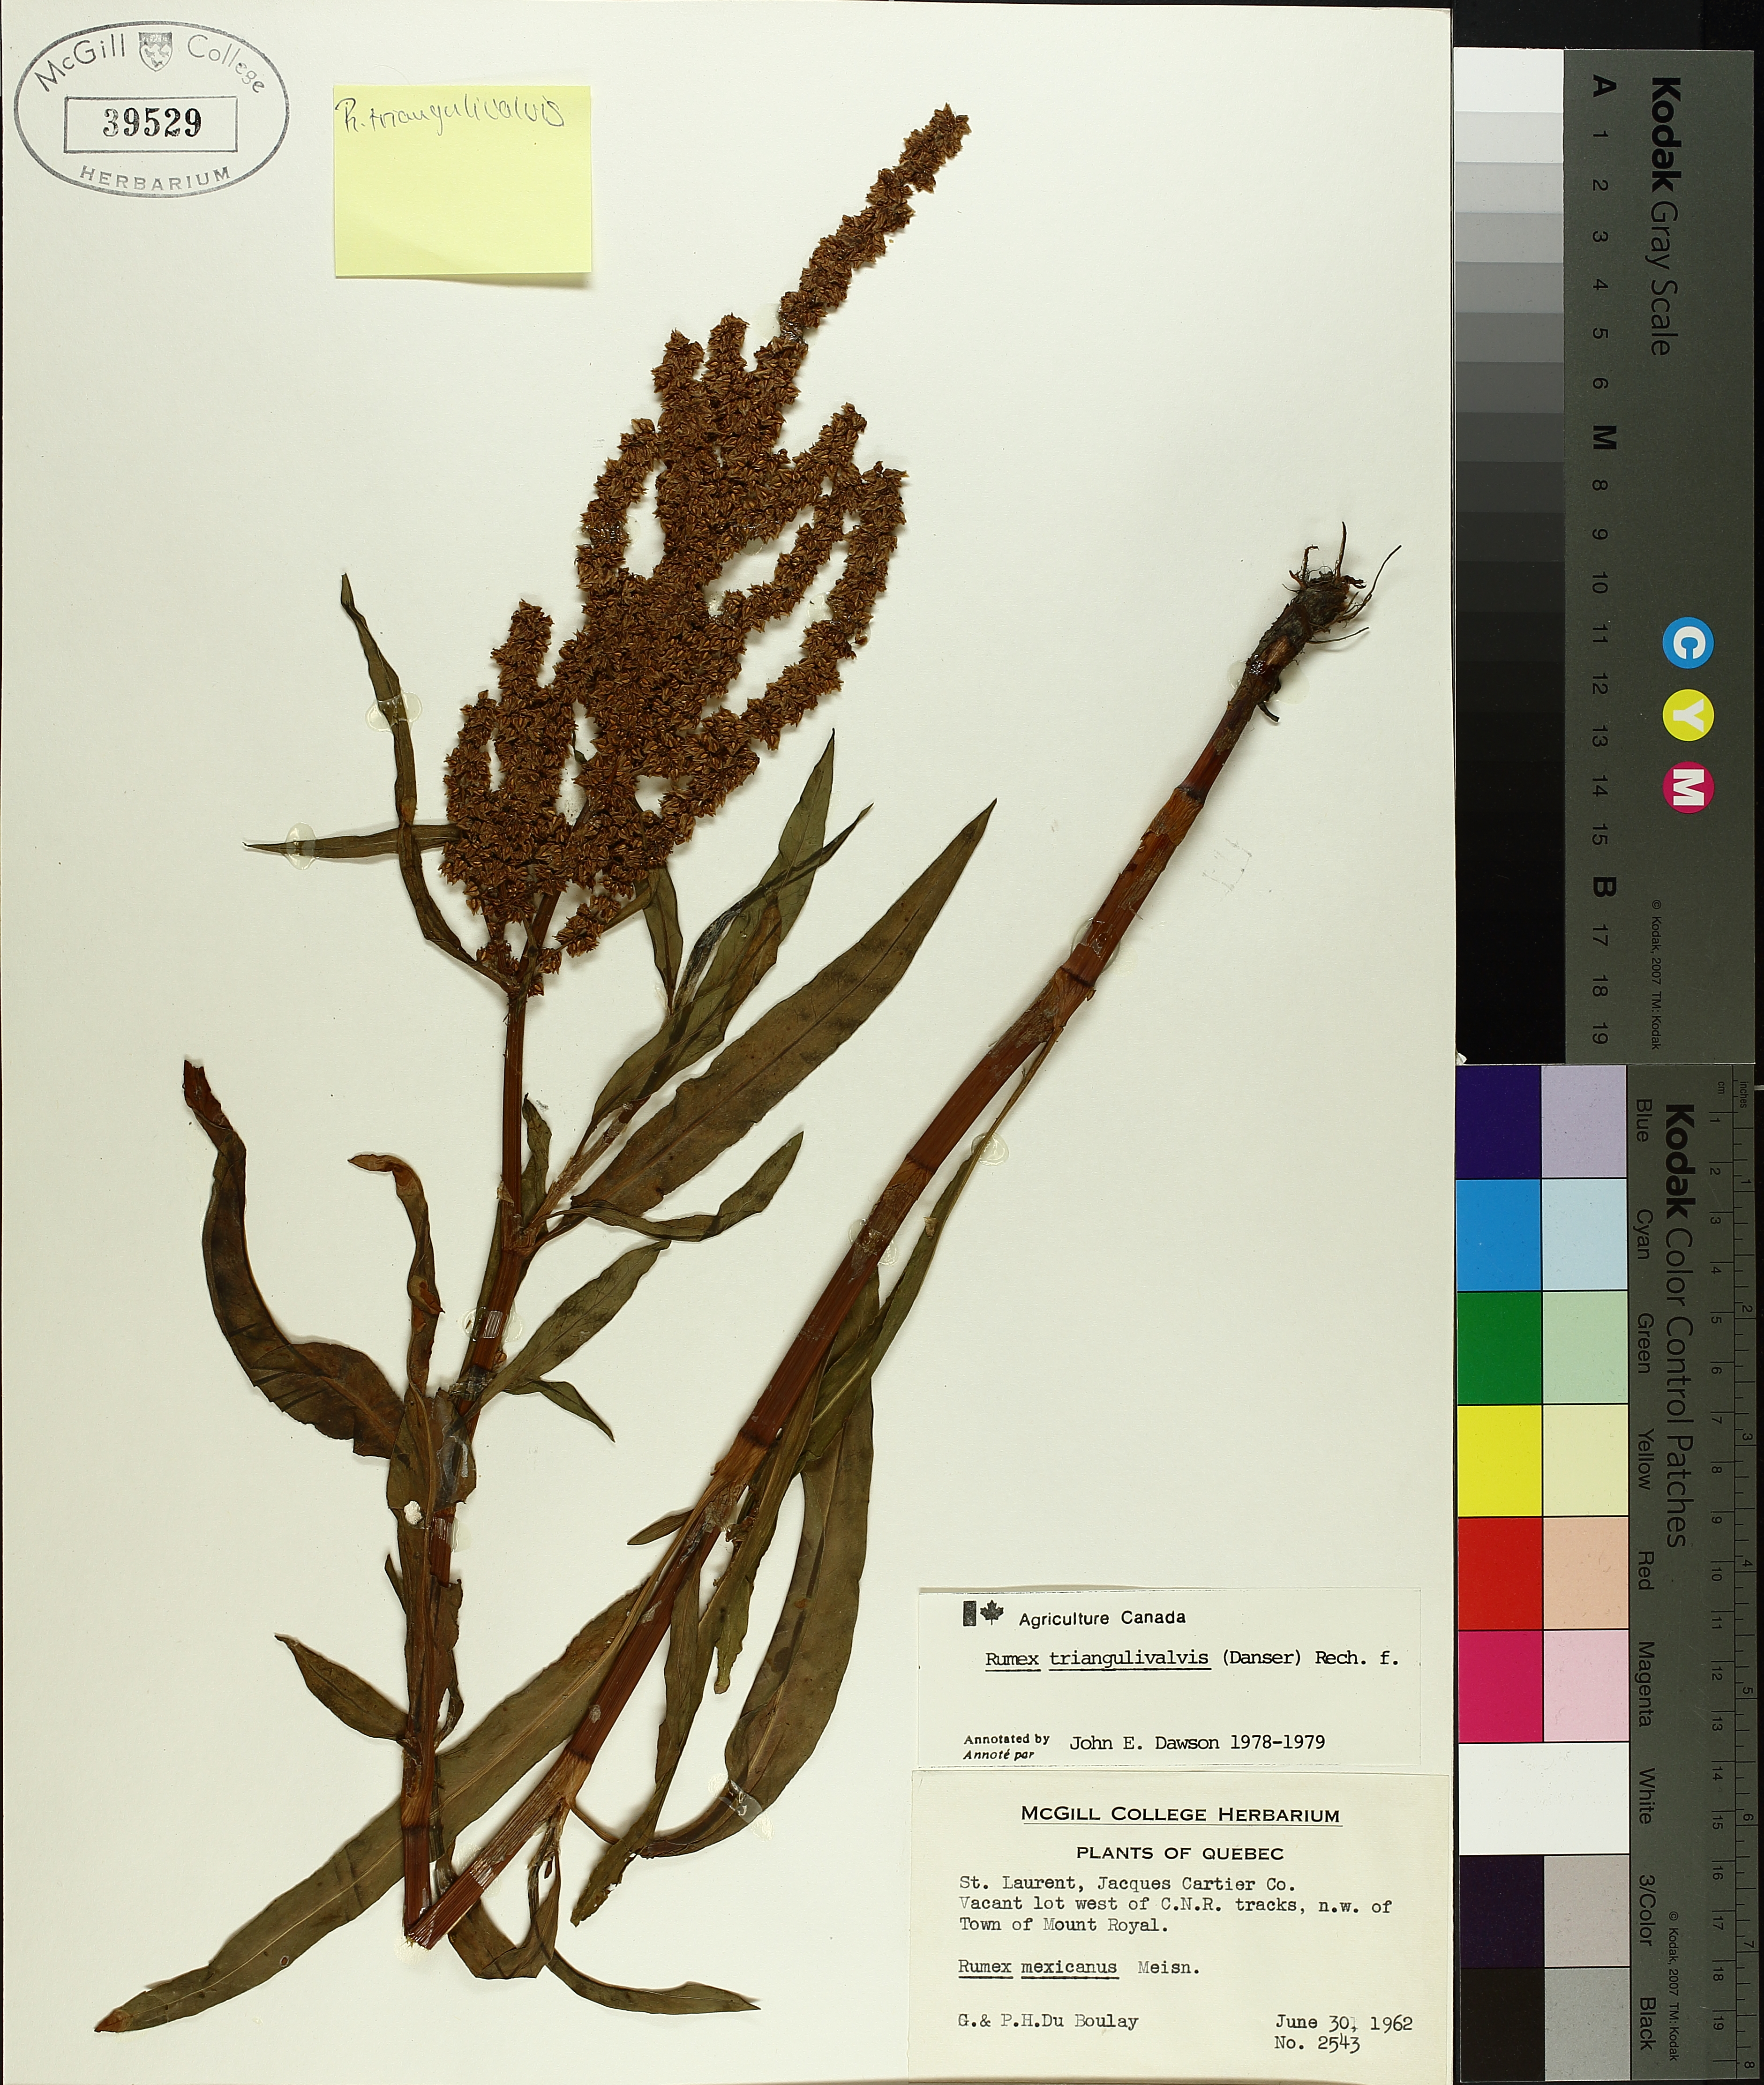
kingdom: Plantae
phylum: Tracheophyta
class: Magnoliopsida
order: Caryophyllales
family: Polygonaceae
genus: Rumex
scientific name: Rumex triangulivalvis
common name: Triangular-valve dock
